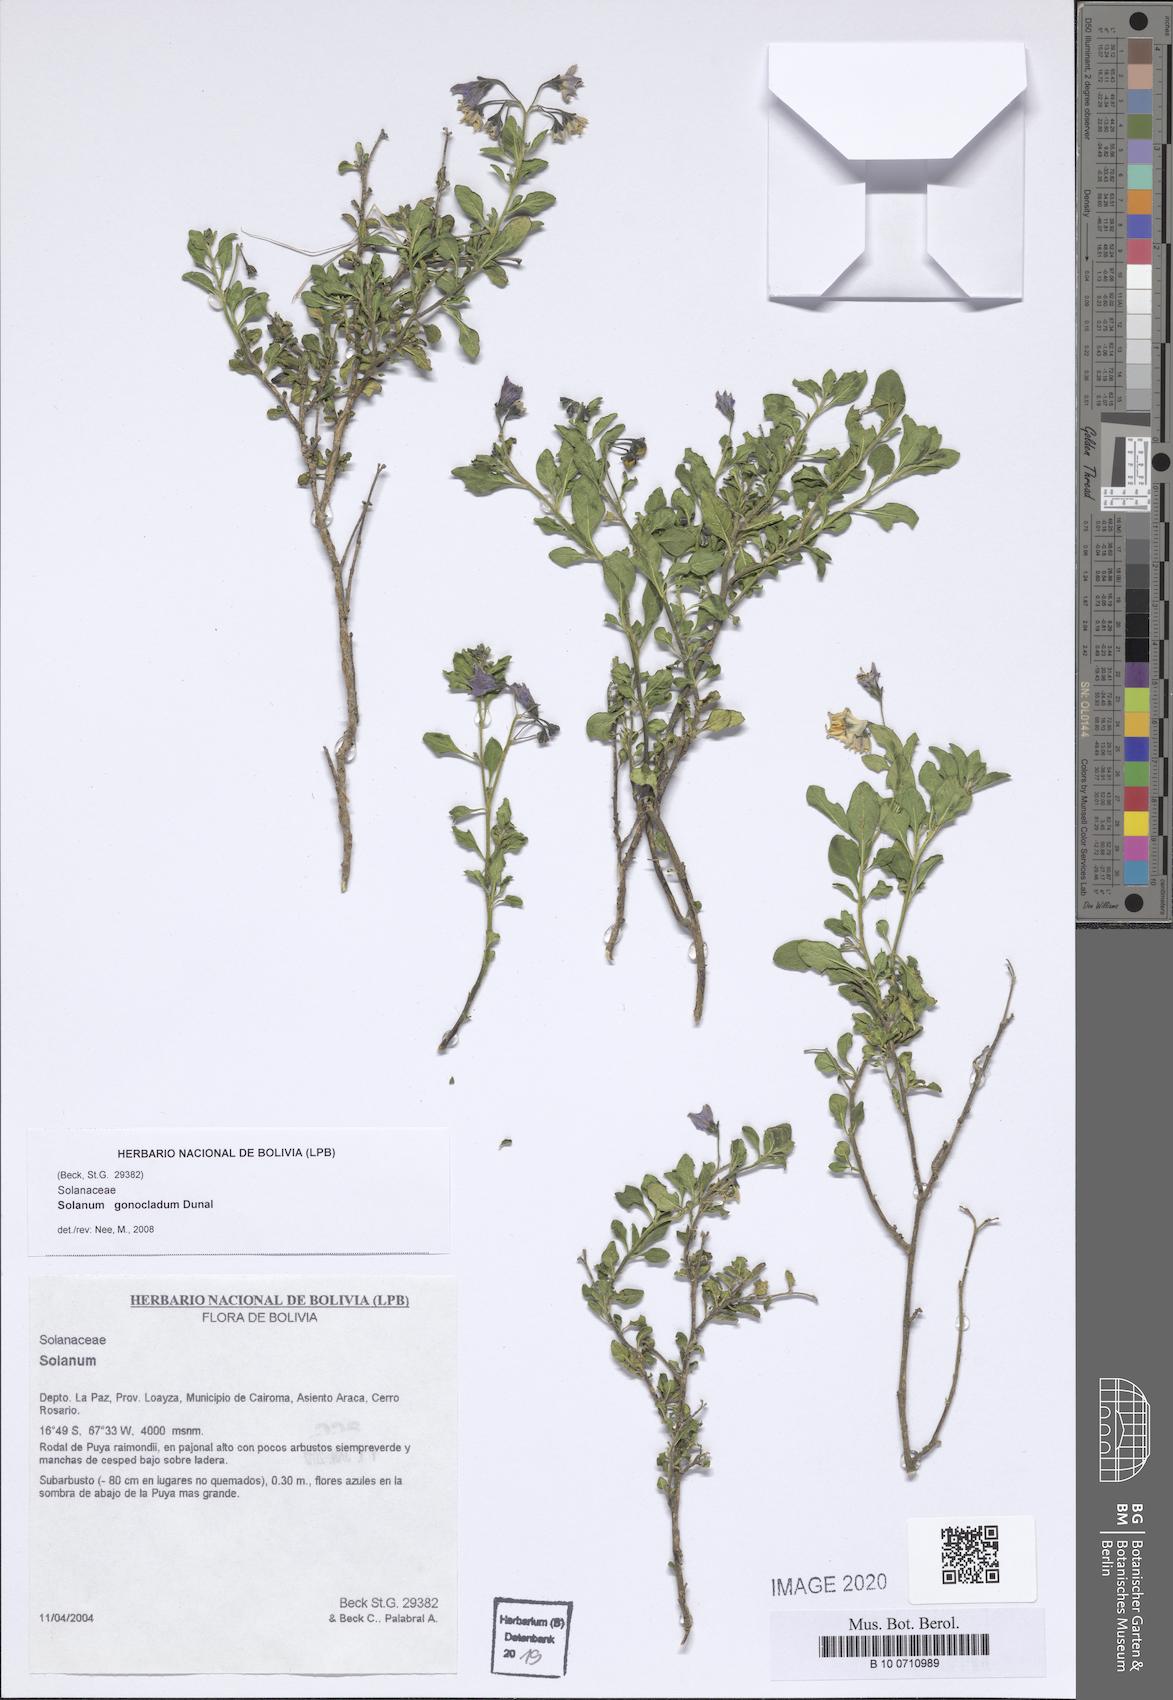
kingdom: Plantae
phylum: Tracheophyta
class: Magnoliopsida
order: Solanales
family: Solanaceae
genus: Solanum
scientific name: Solanum gonocladum
